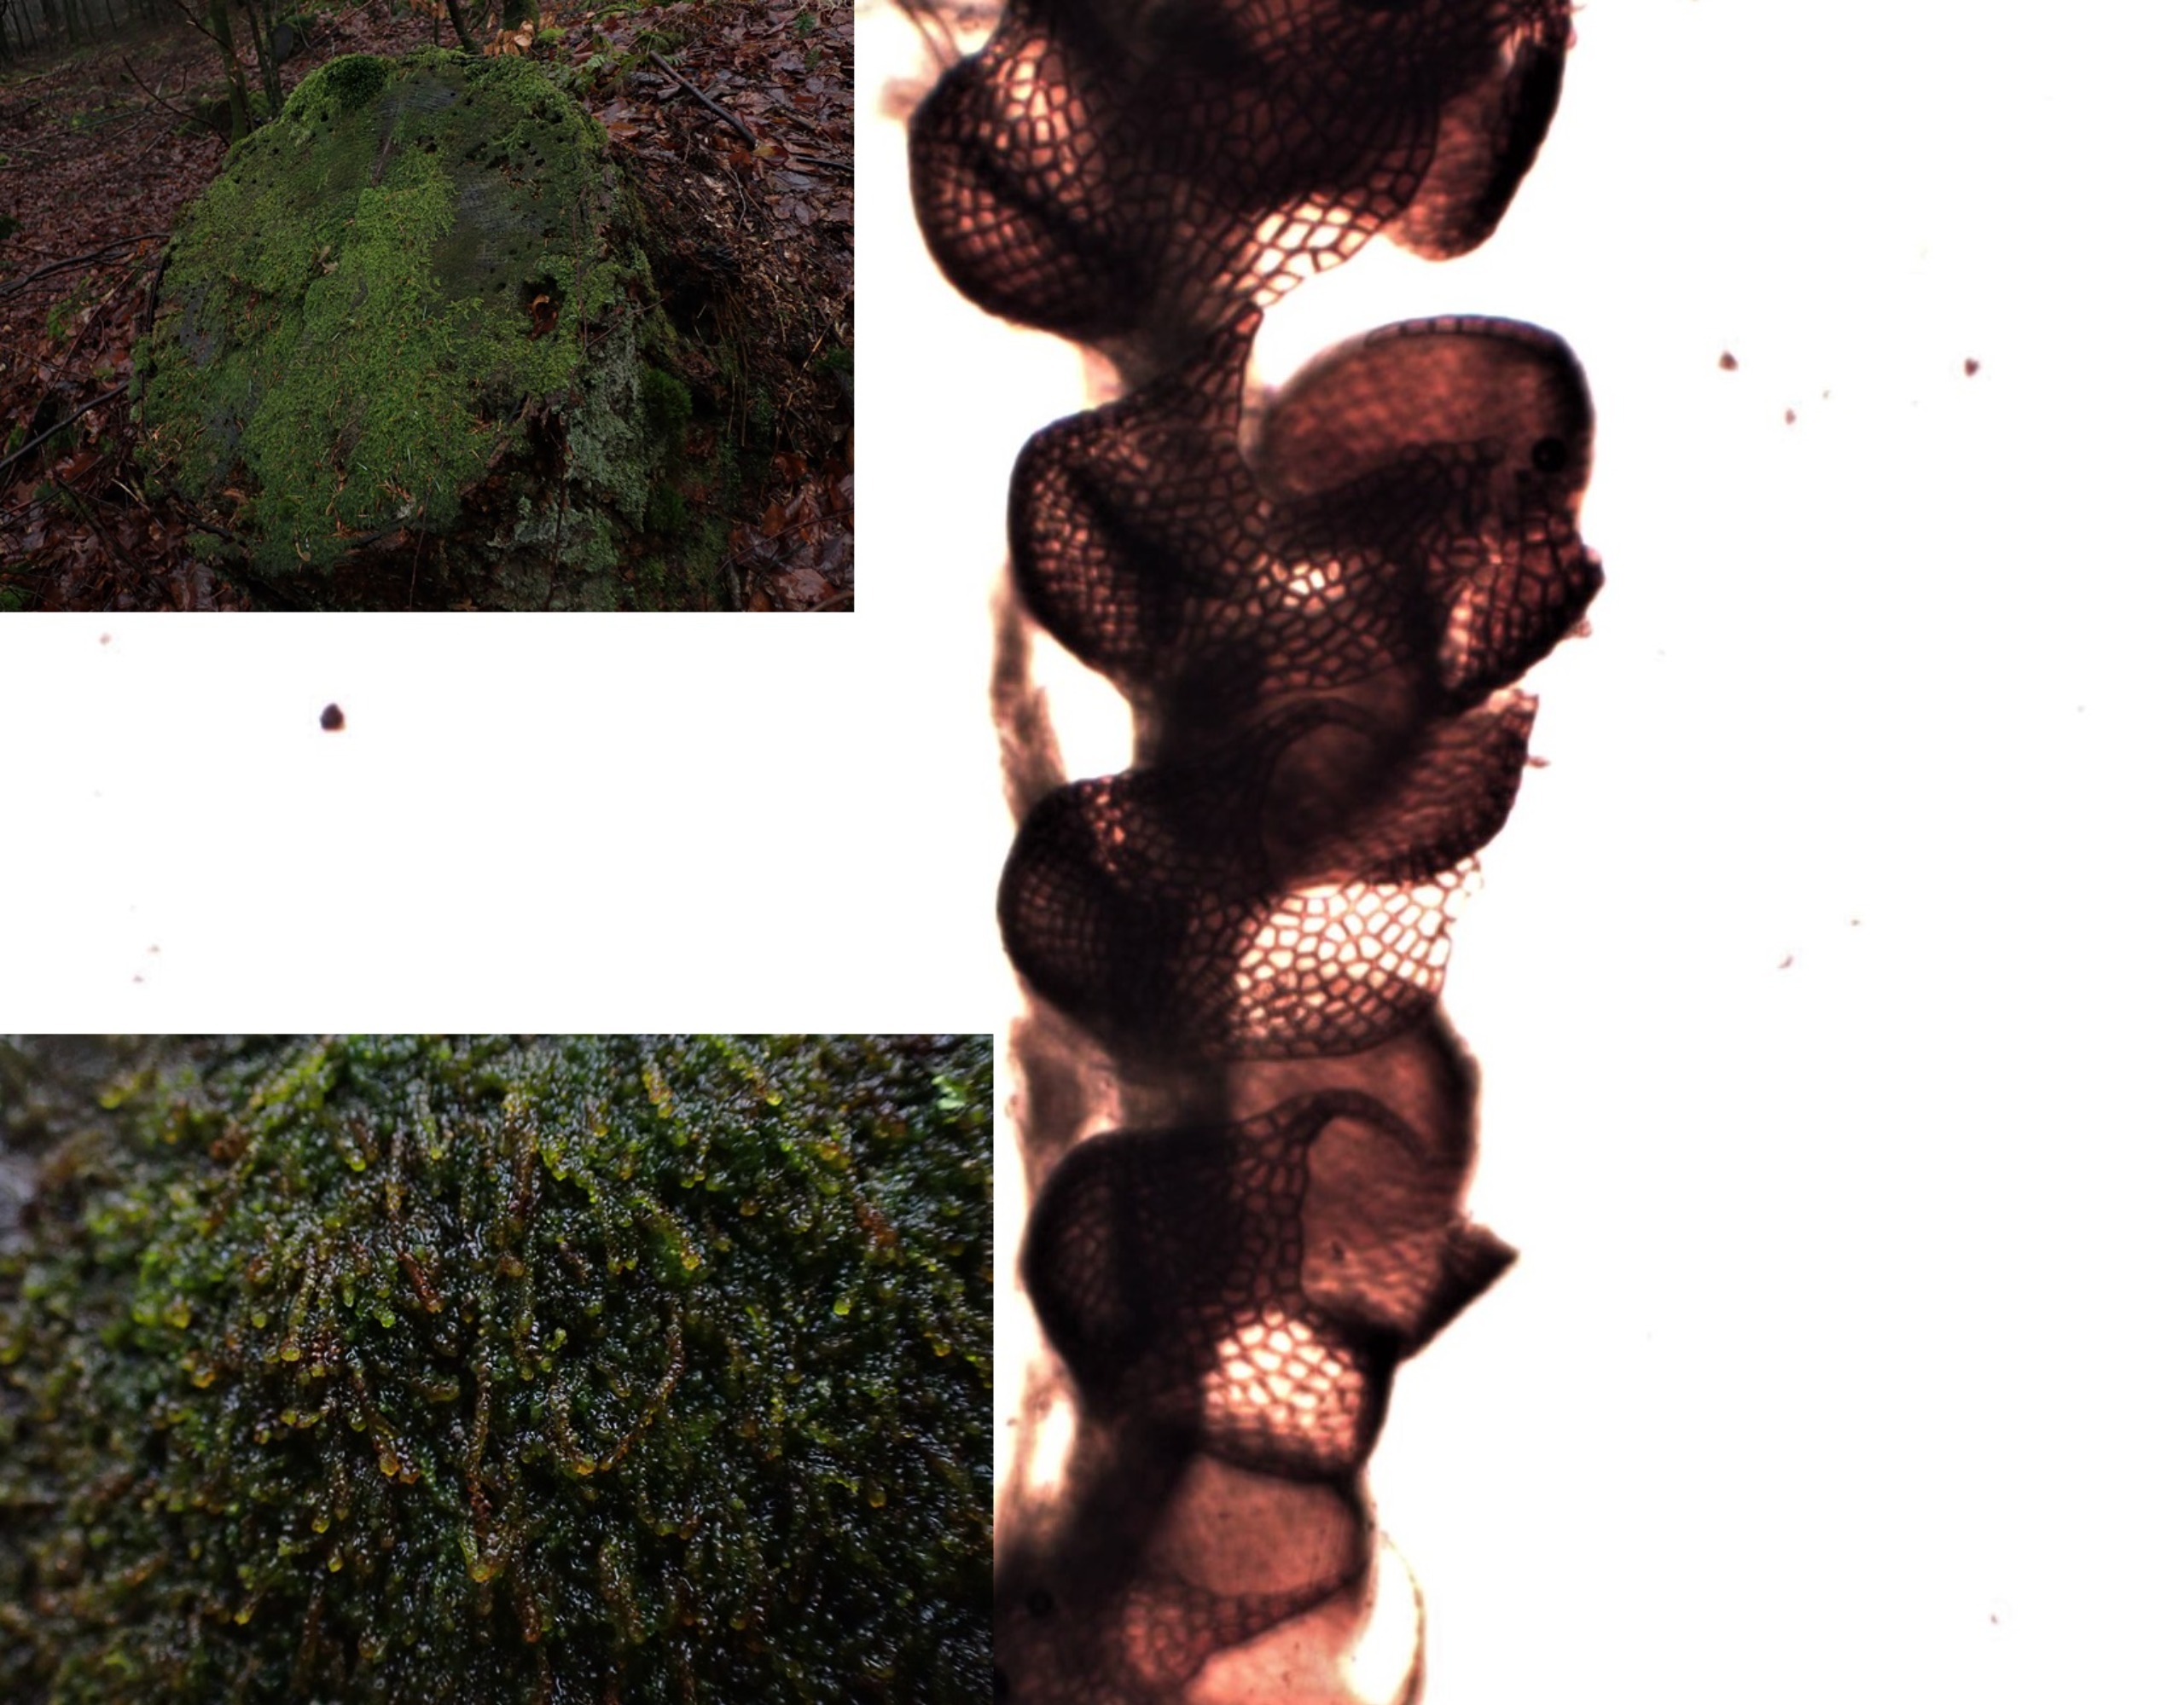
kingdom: Plantae
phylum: Marchantiophyta
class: Jungermanniopsida
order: Jungermanniales
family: Cephaloziaceae
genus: Nowellia
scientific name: Nowellia curvifolia
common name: Krumbladet stødmos
